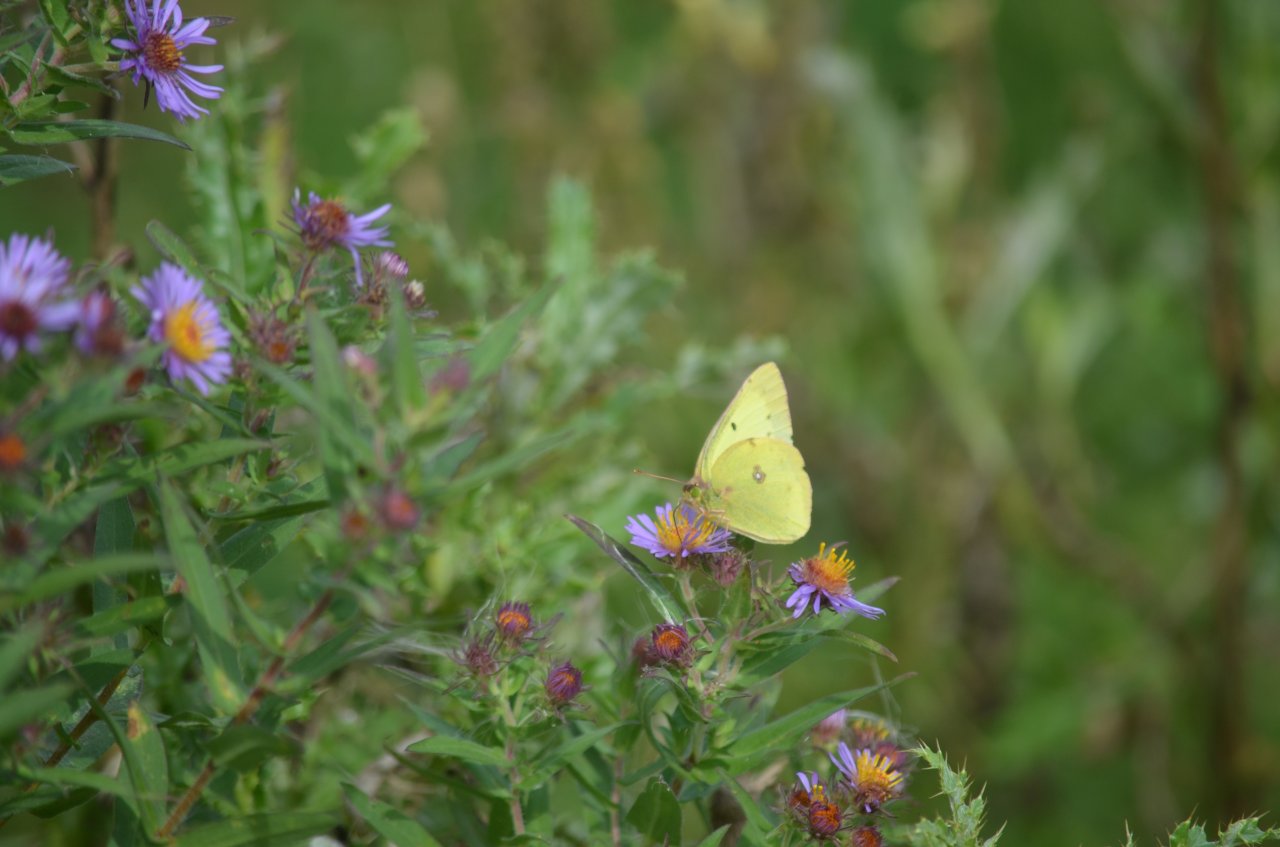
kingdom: Animalia
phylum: Arthropoda
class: Insecta
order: Lepidoptera
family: Pieridae
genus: Colias
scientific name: Colias philodice
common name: Clouded Sulphur
